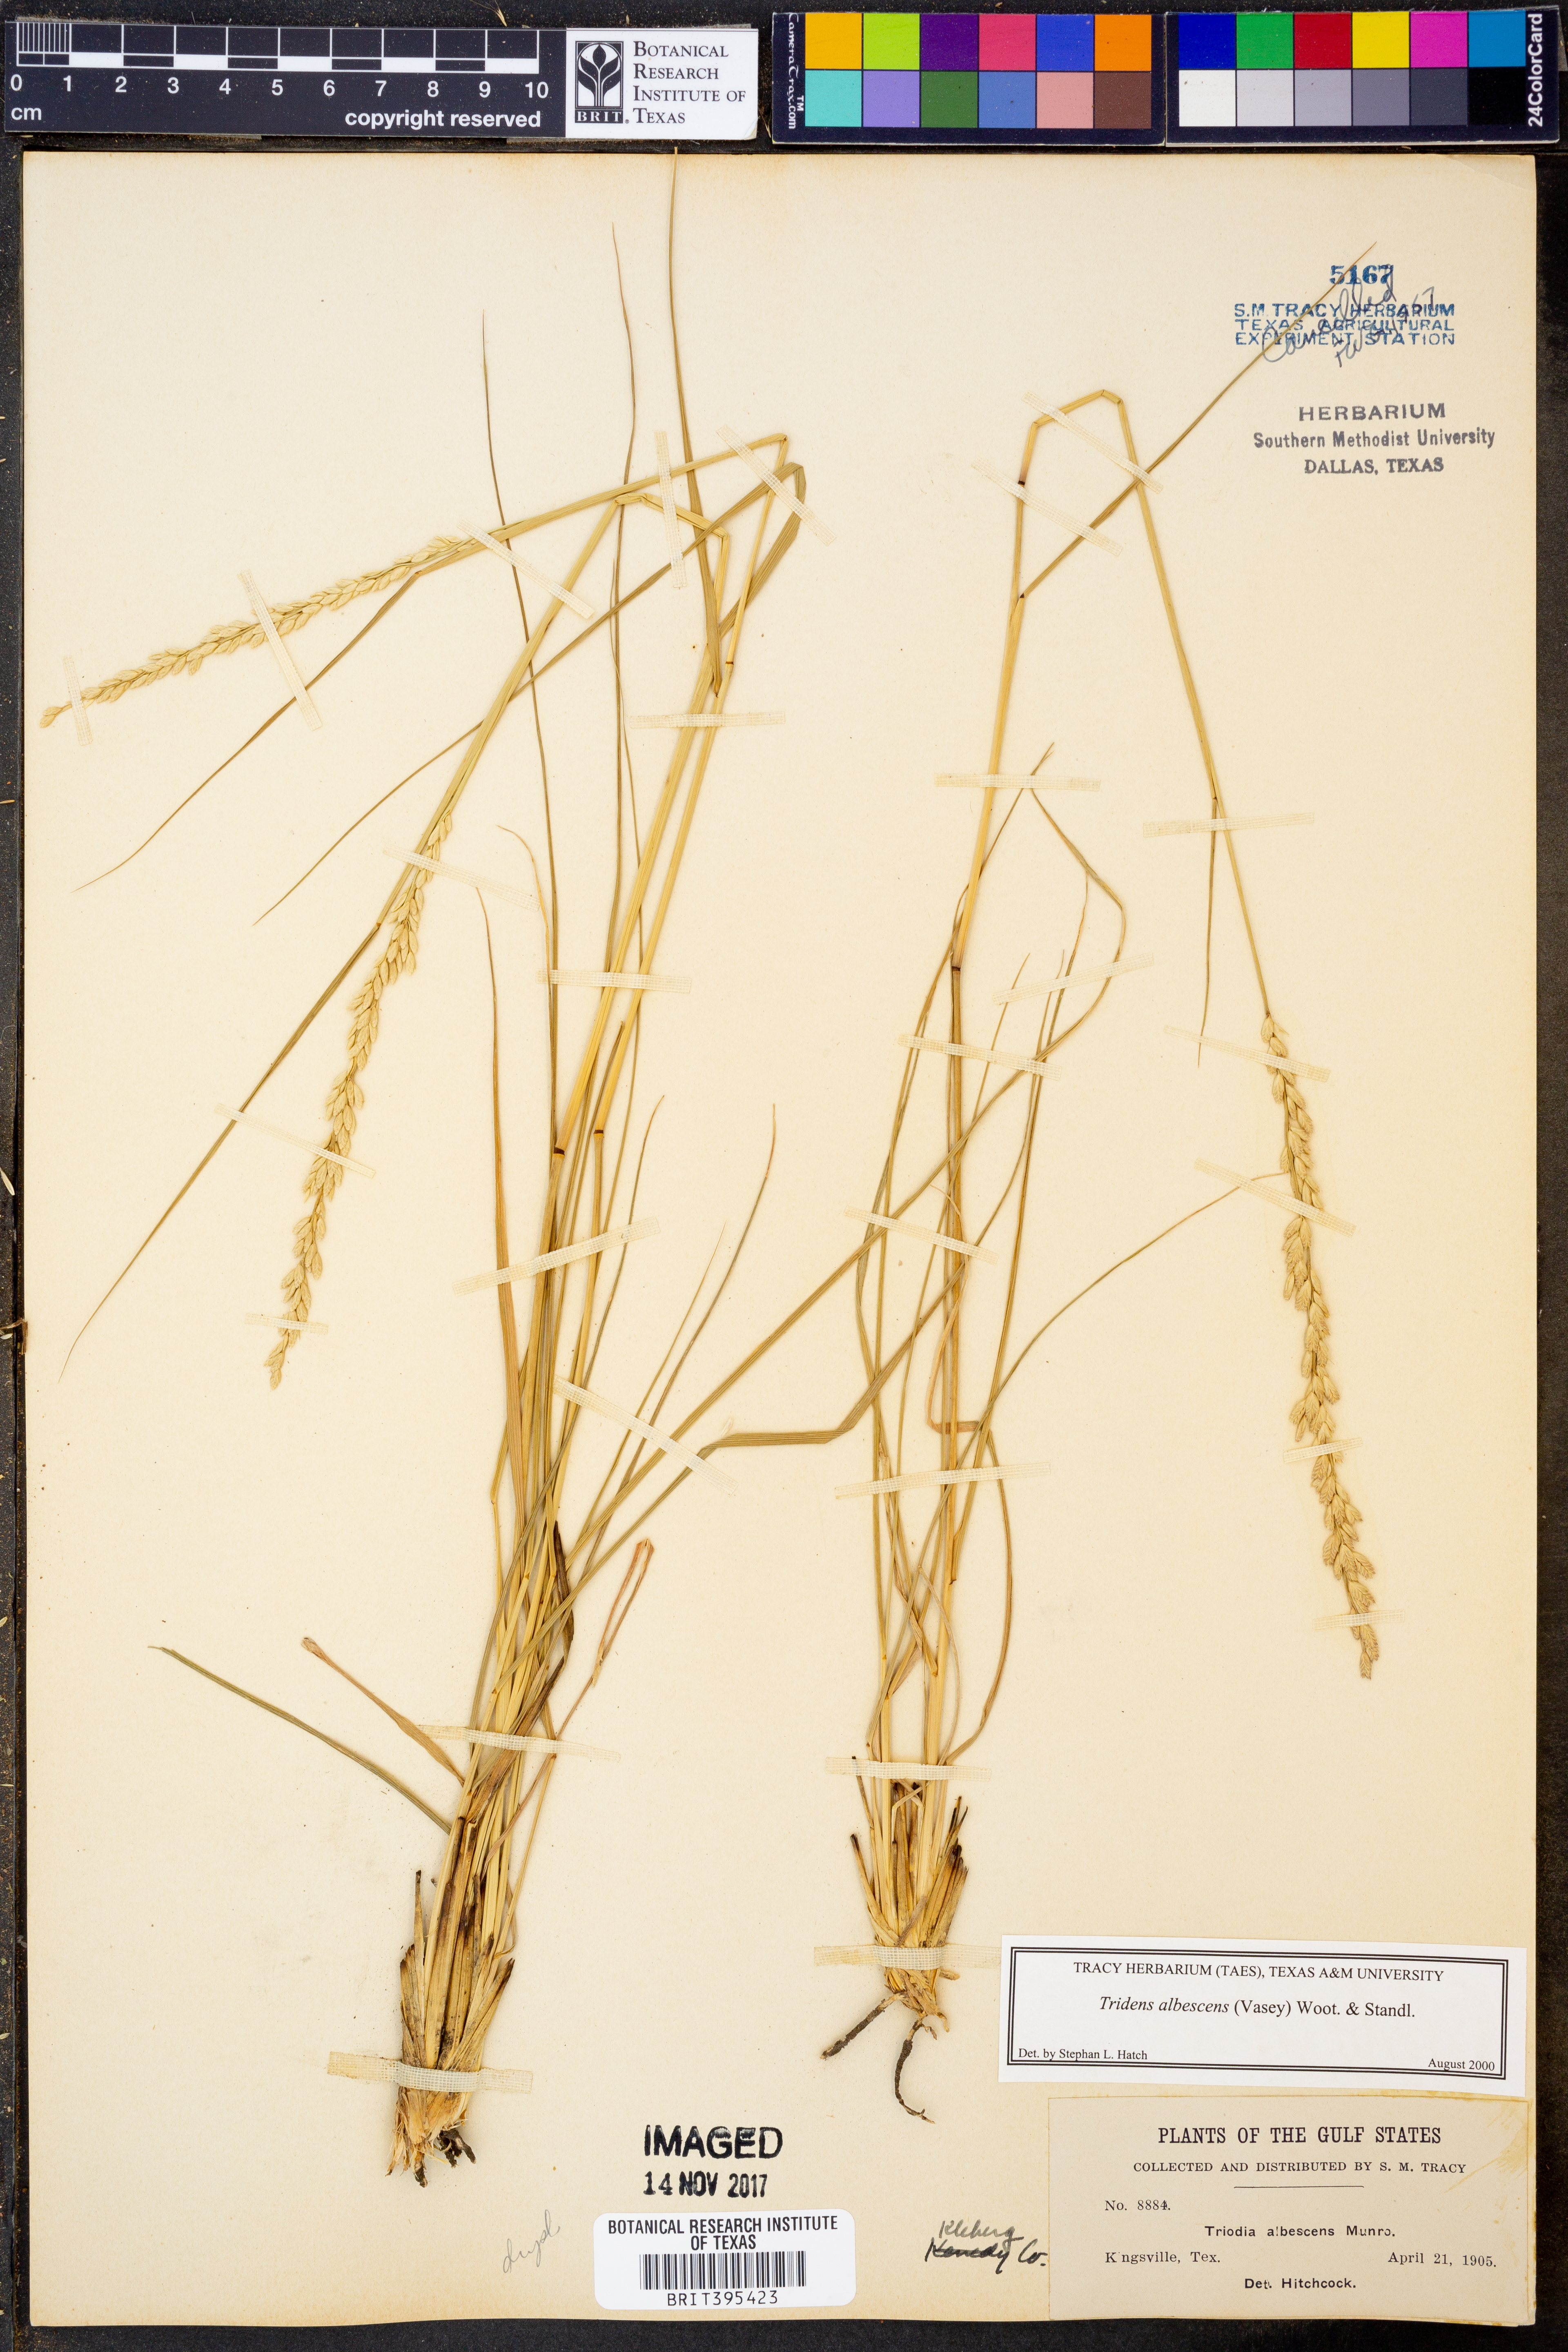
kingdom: Plantae
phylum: Tracheophyta
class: Liliopsida
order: Poales
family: Poaceae
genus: Tridens
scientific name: Tridens albescens
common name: White tridens
